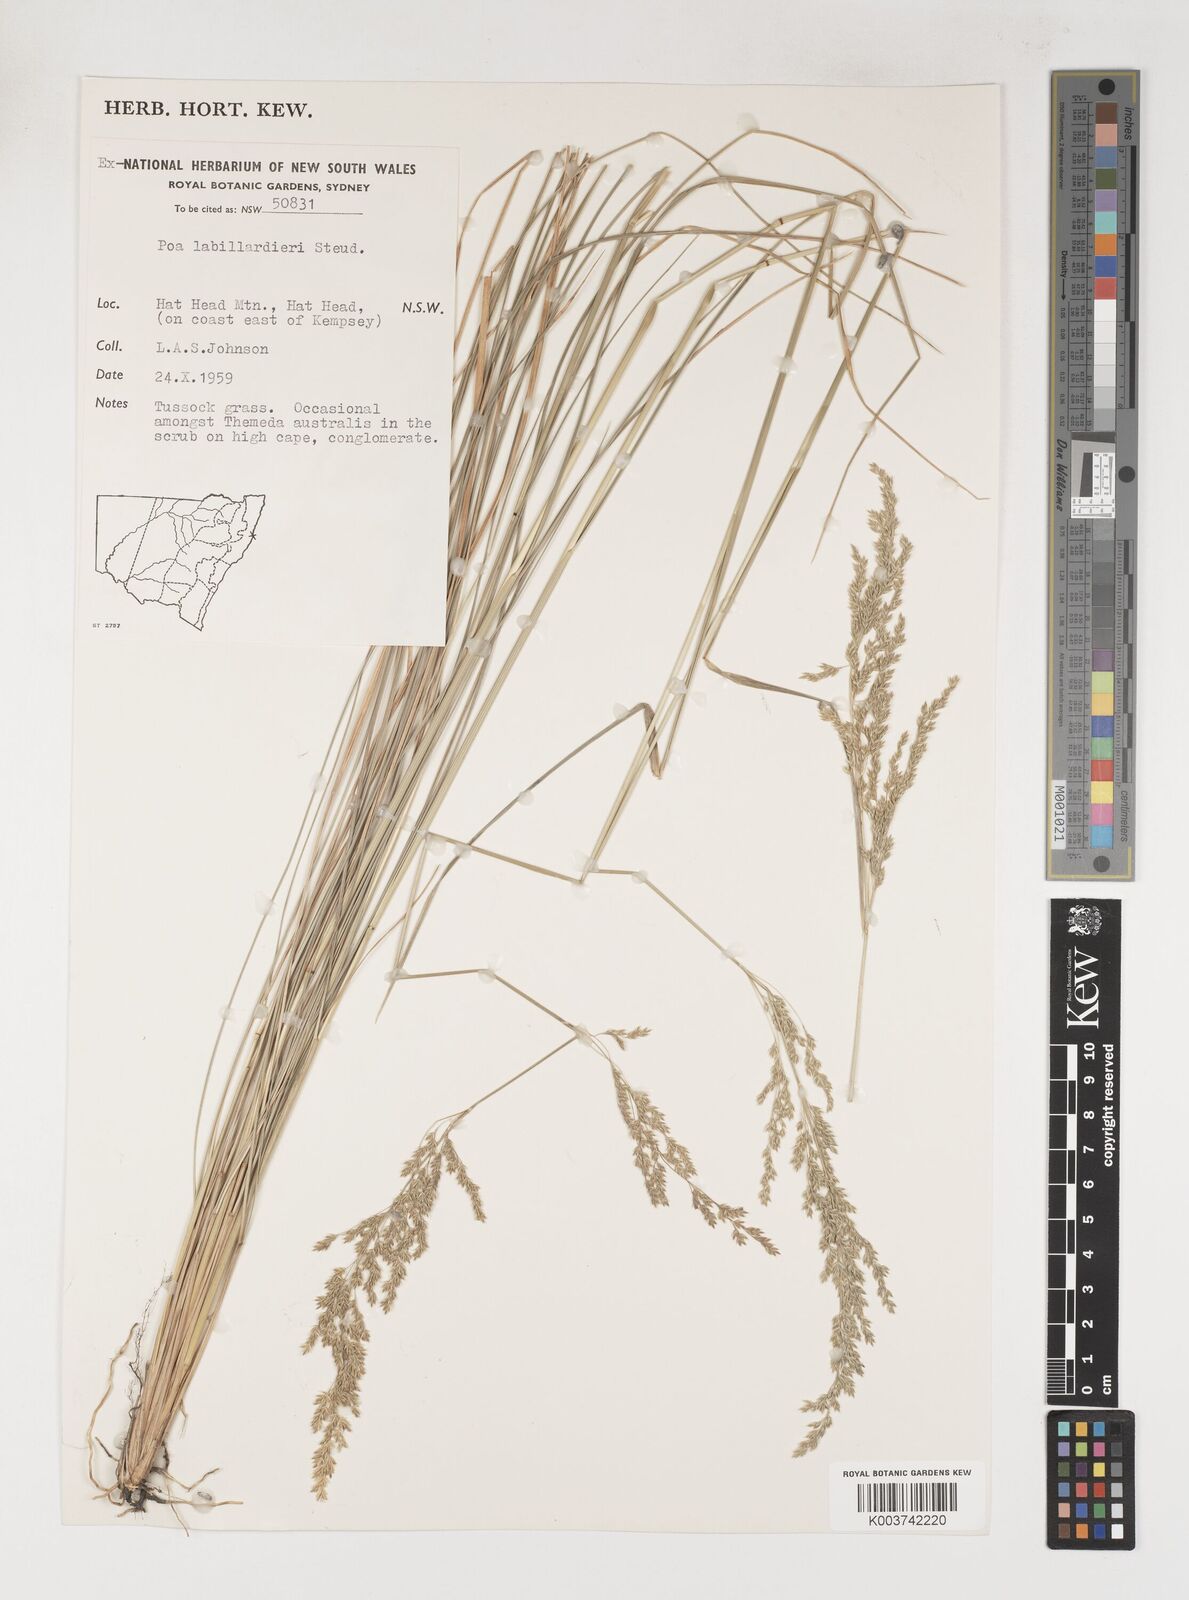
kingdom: Plantae
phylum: Tracheophyta
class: Liliopsida
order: Poales
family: Poaceae
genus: Poa
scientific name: Poa labillardierei
